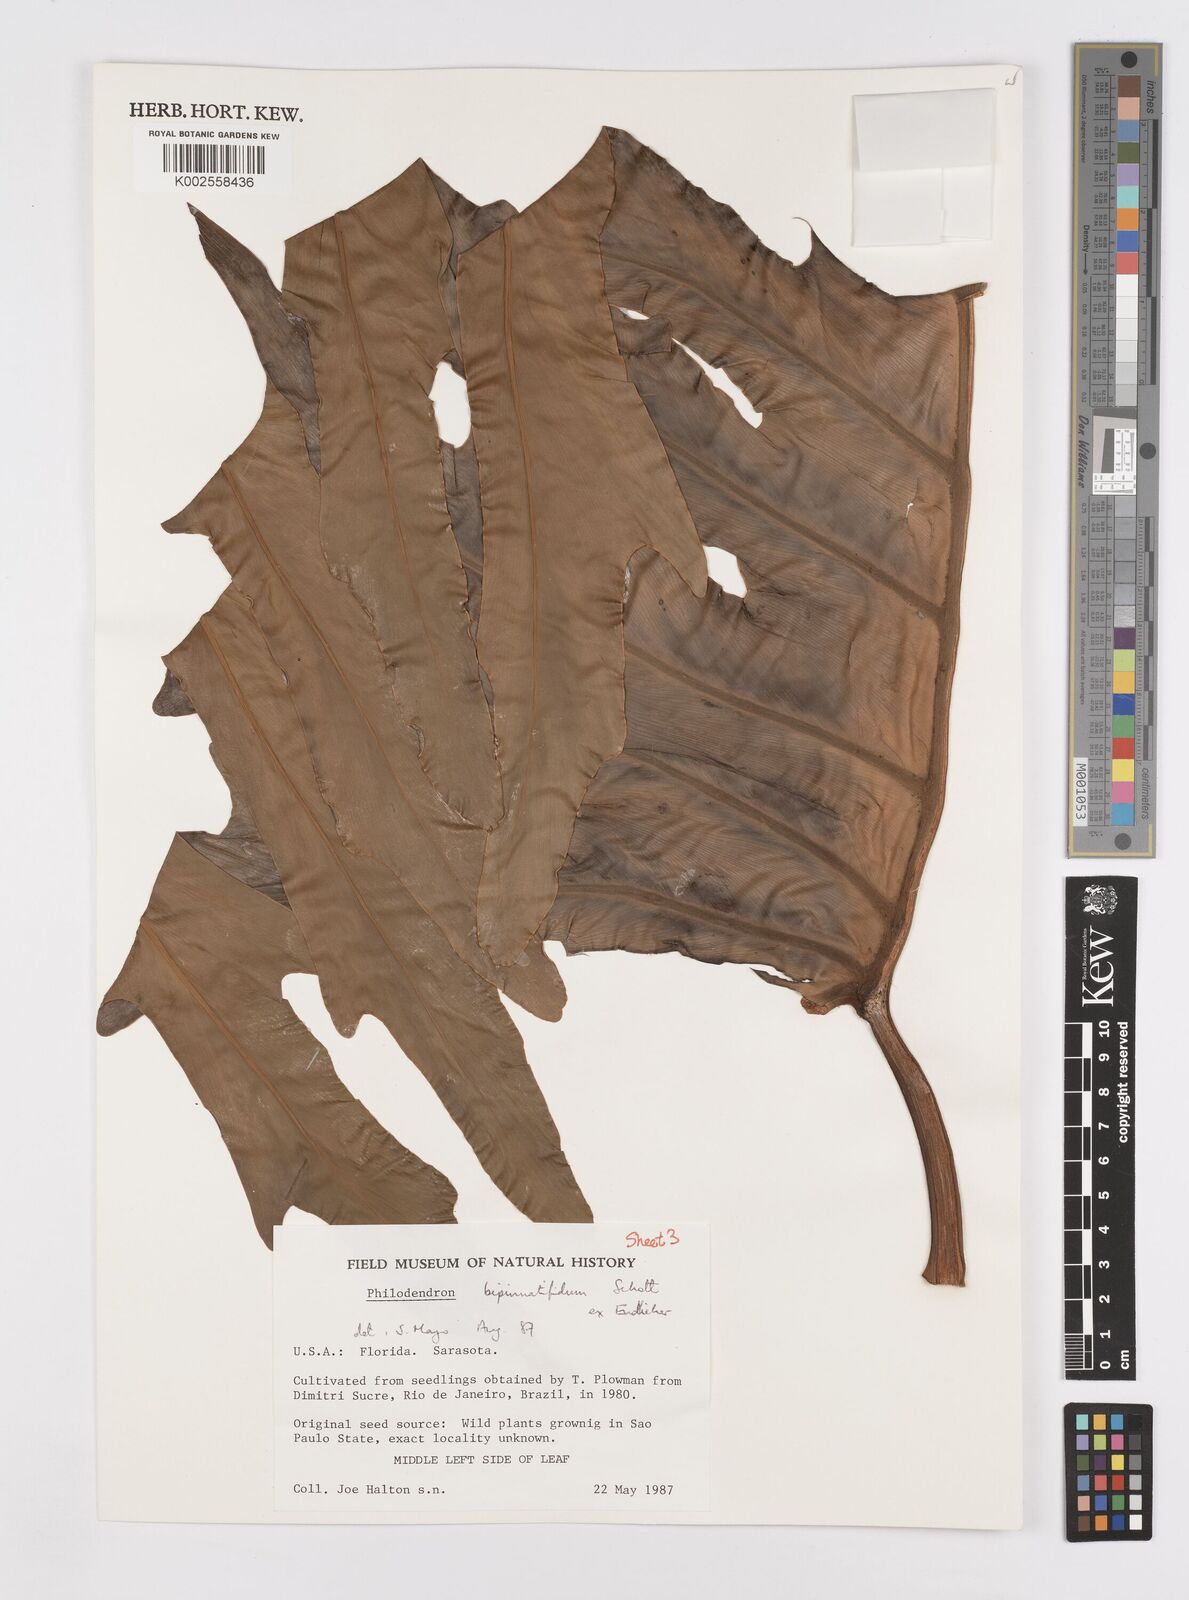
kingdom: Plantae
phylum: Tracheophyta
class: Liliopsida
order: Alismatales
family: Araceae
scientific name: Araceae
